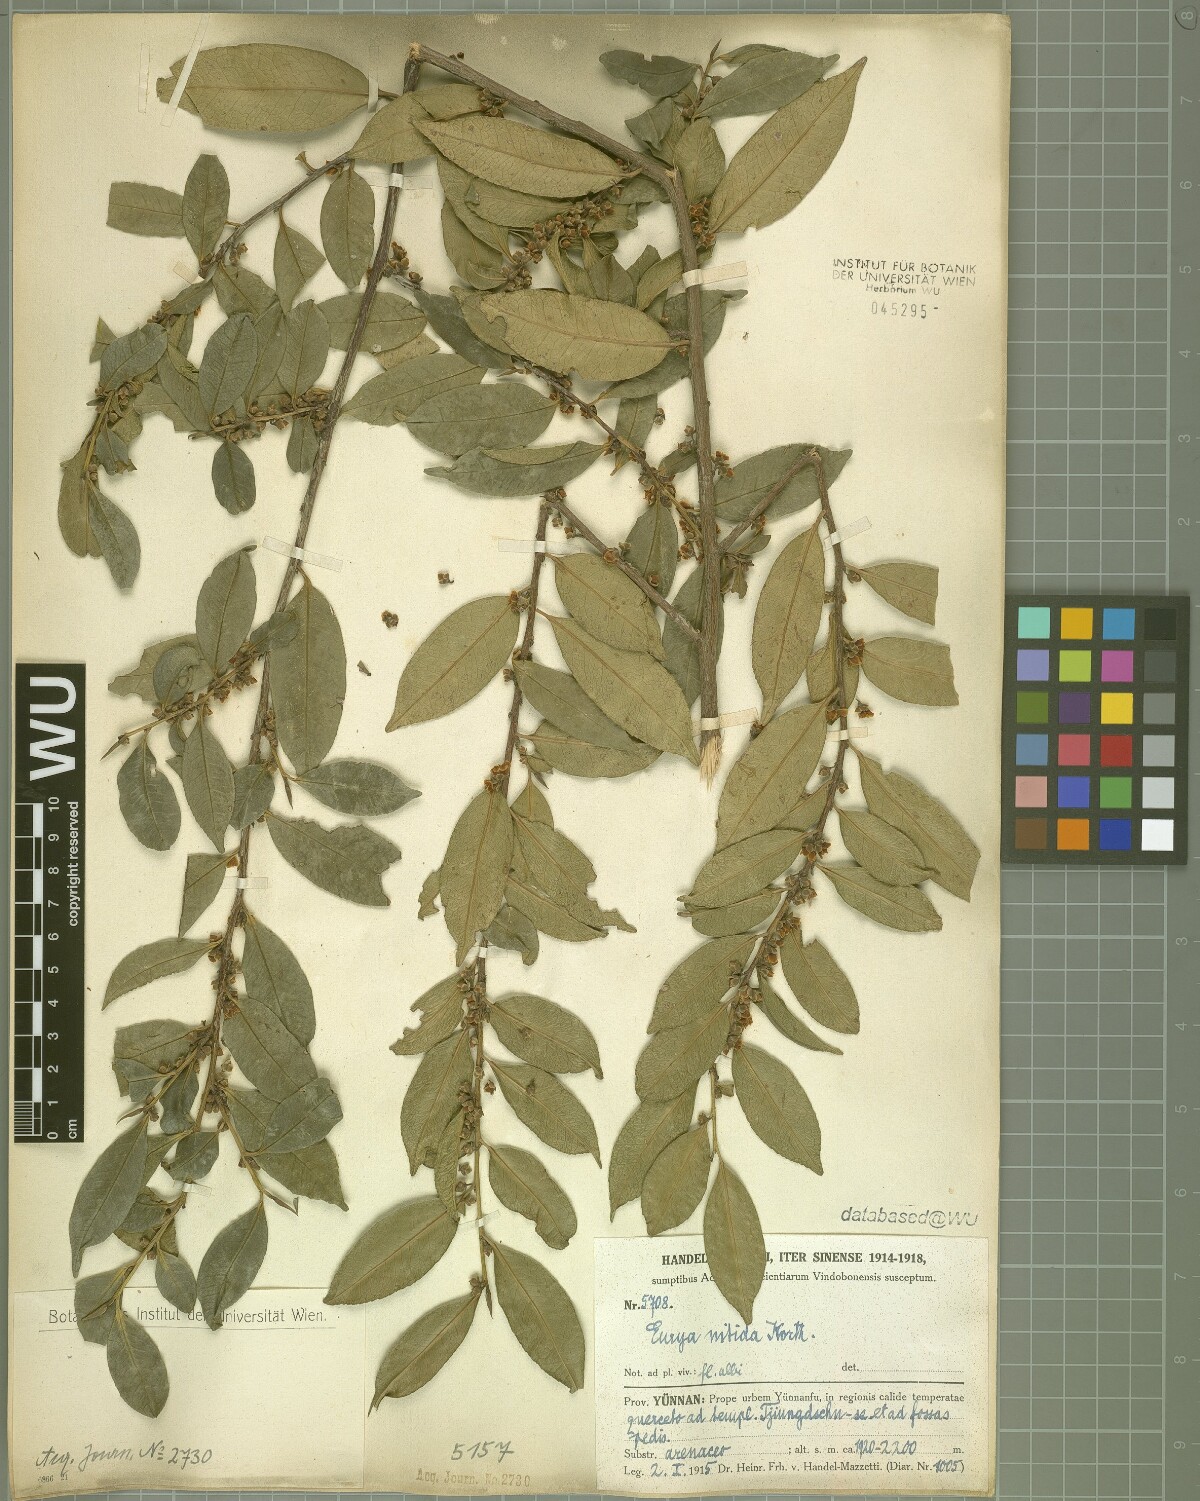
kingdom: Plantae
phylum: Tracheophyta
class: Magnoliopsida
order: Ericales
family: Pentaphylacaceae
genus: Eurya
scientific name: Eurya nitida
